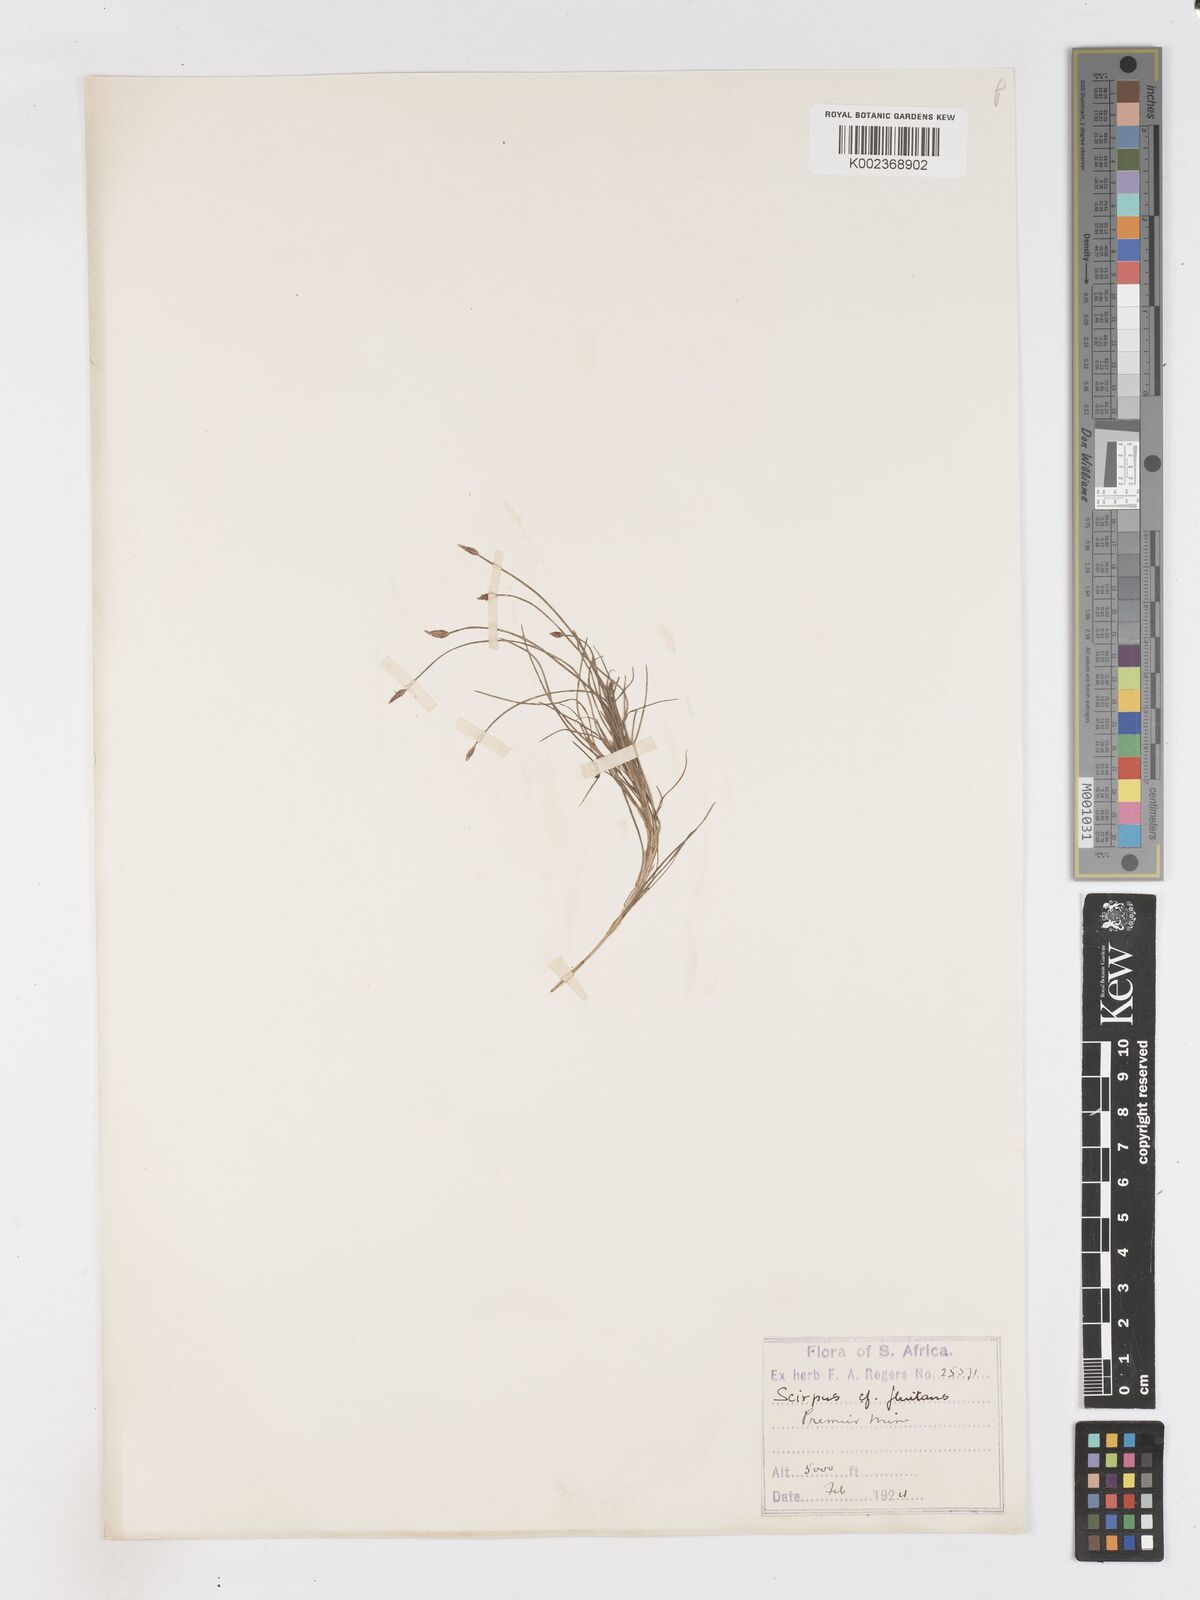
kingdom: Plantae
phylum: Tracheophyta
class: Liliopsida
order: Poales
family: Cyperaceae
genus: Isolepis
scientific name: Isolepis fluitans
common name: Floating club-rush
